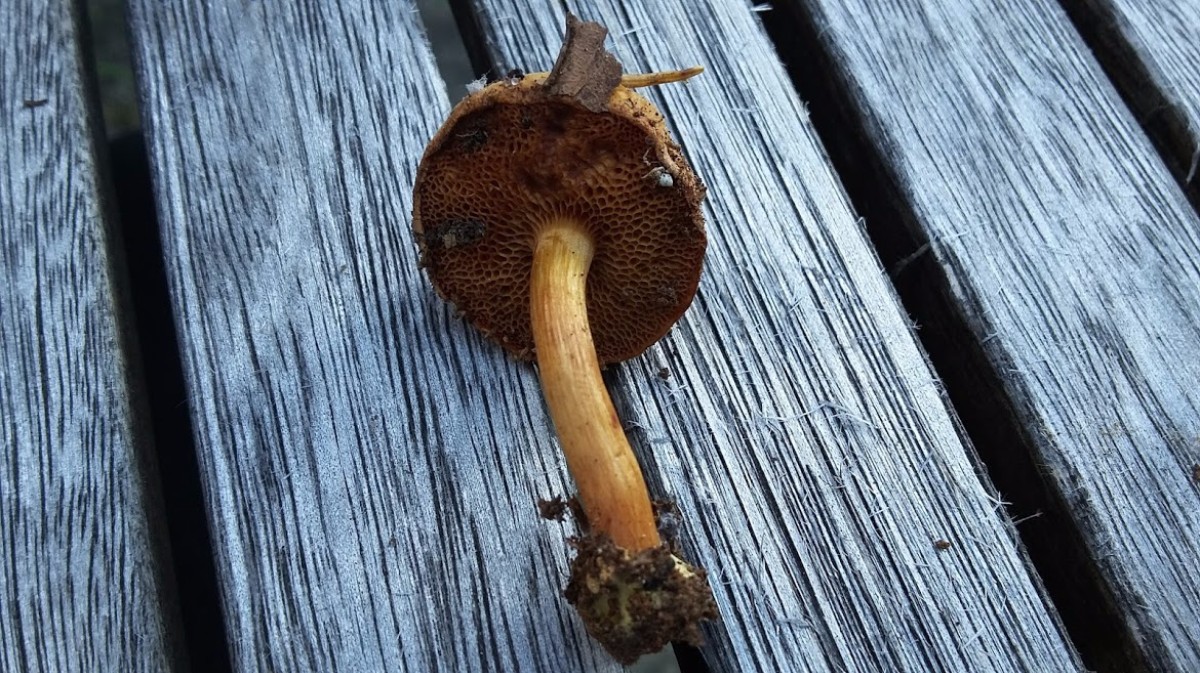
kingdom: Fungi
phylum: Basidiomycota
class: Agaricomycetes
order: Boletales
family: Boletaceae
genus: Chalciporus
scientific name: Chalciporus piperatus
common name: peberrørhat
